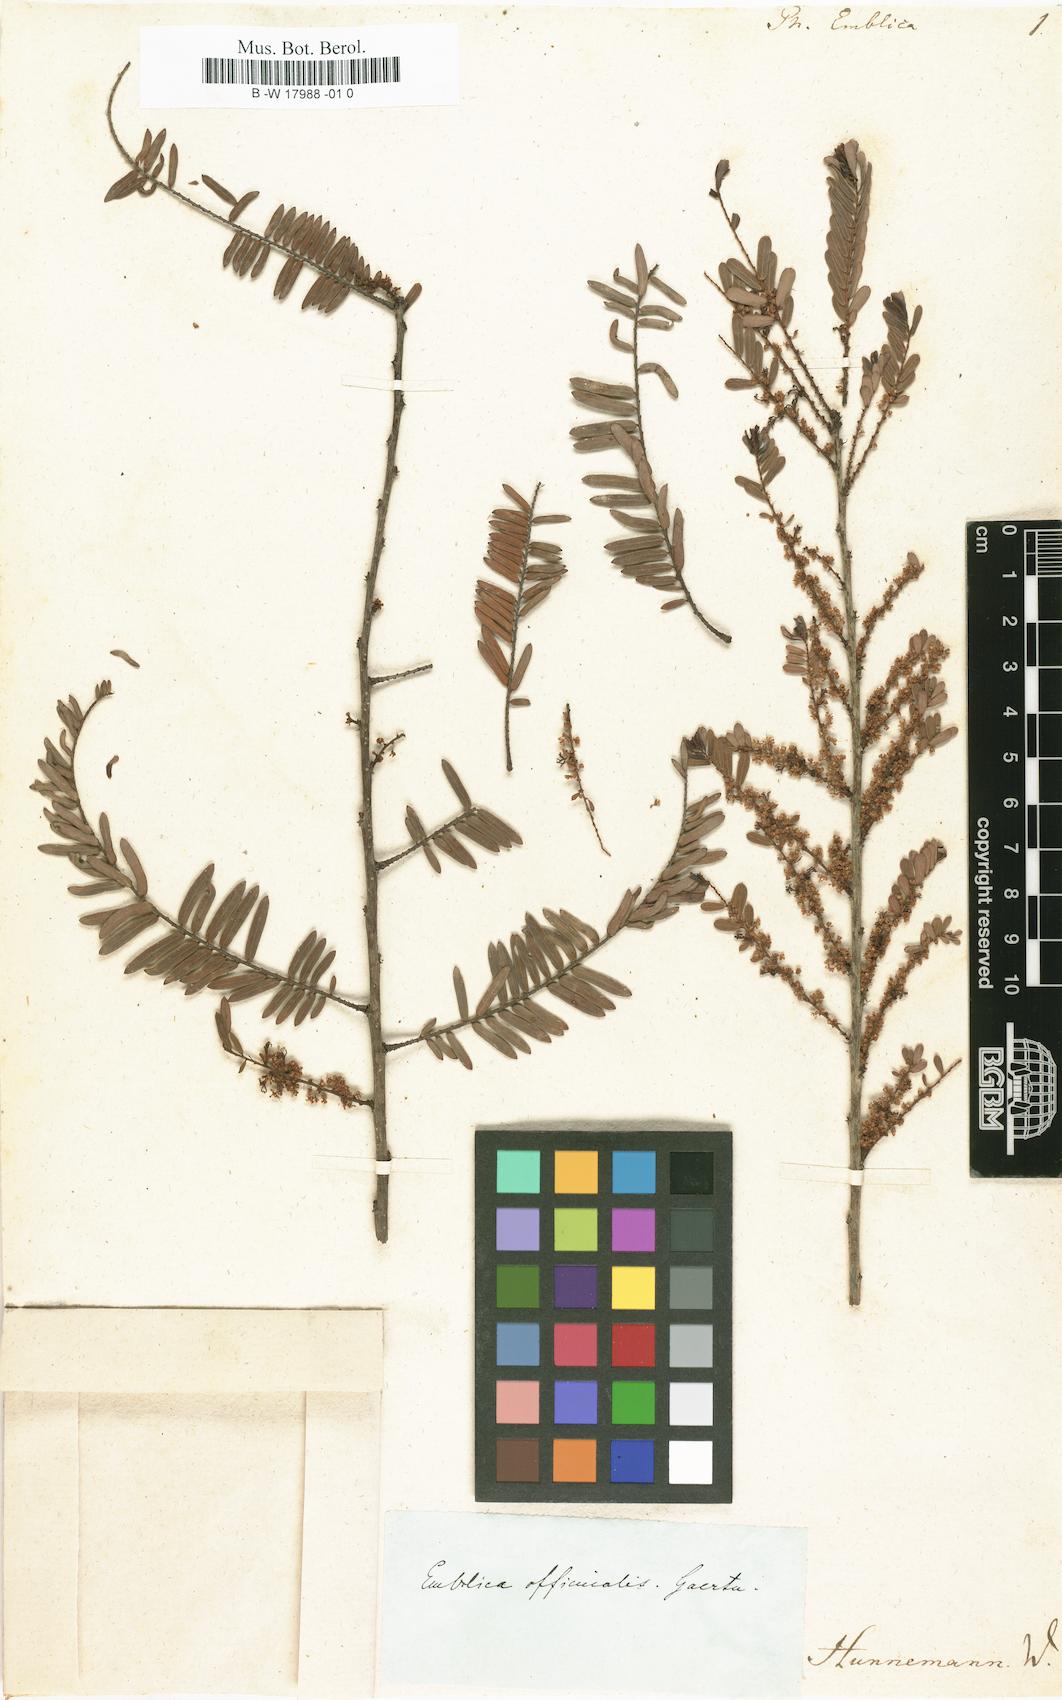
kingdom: Plantae
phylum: Tracheophyta
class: Magnoliopsida
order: Malpighiales
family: Phyllanthaceae
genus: Phyllanthus
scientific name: Phyllanthus emblica
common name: Indian gooseberry
